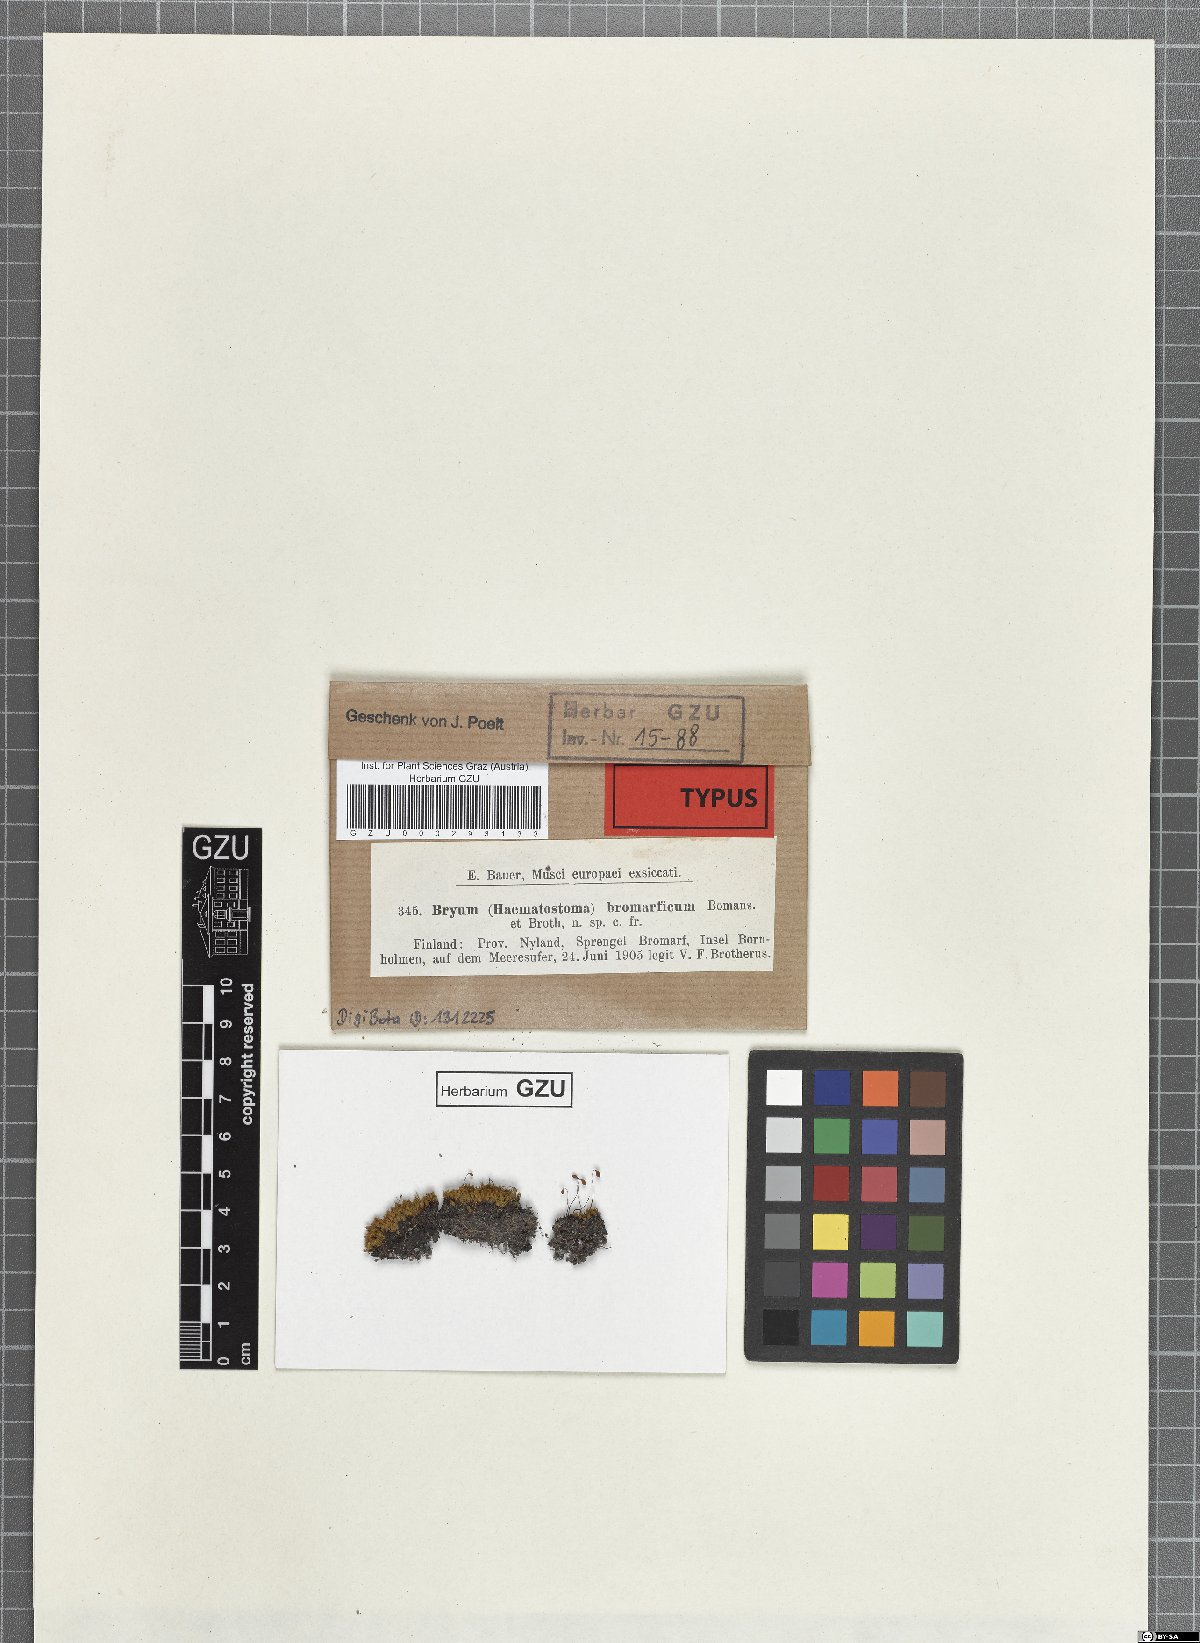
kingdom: Plantae
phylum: Bryophyta
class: Bryopsida
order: Bryales
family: Bryaceae
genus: Ptychostomum
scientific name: Ptychostomum archangelicum
